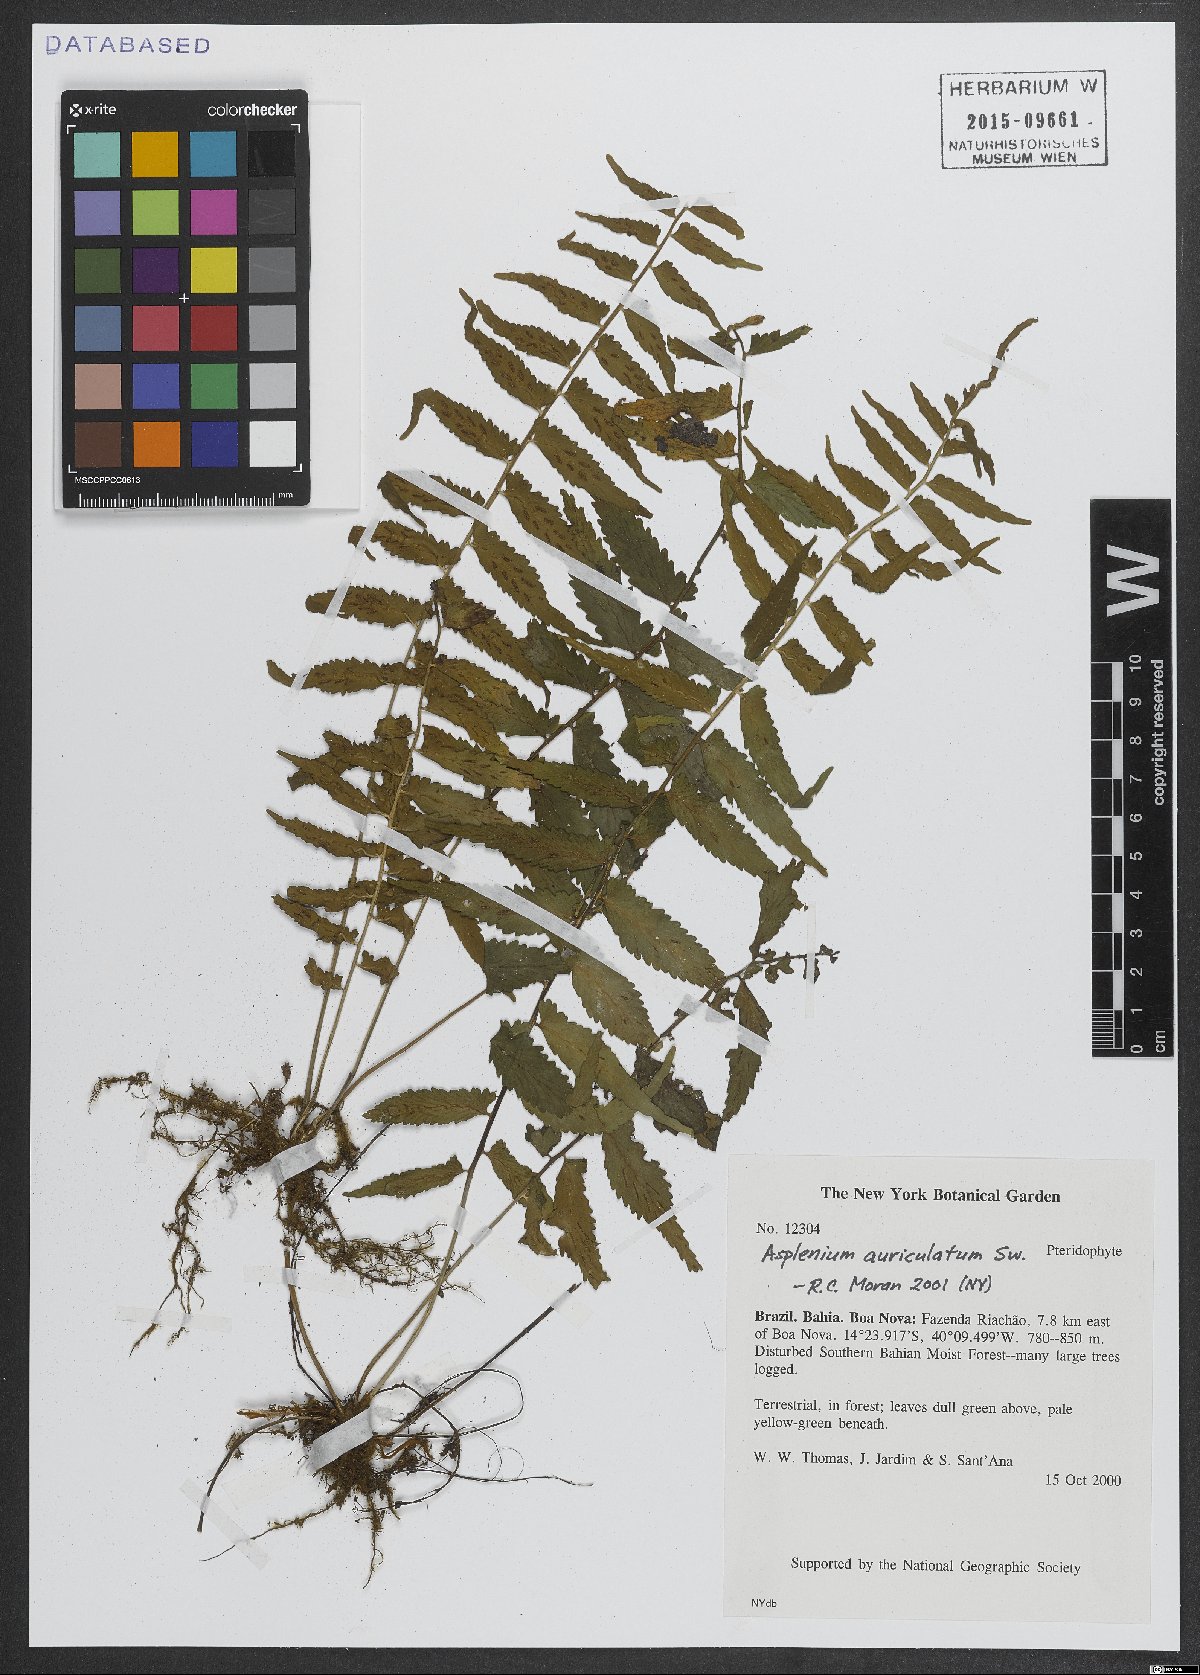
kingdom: Plantae
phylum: Tracheophyta
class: Polypodiopsida
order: Polypodiales
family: Aspleniaceae
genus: Asplenium
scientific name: Asplenium auriculatum
